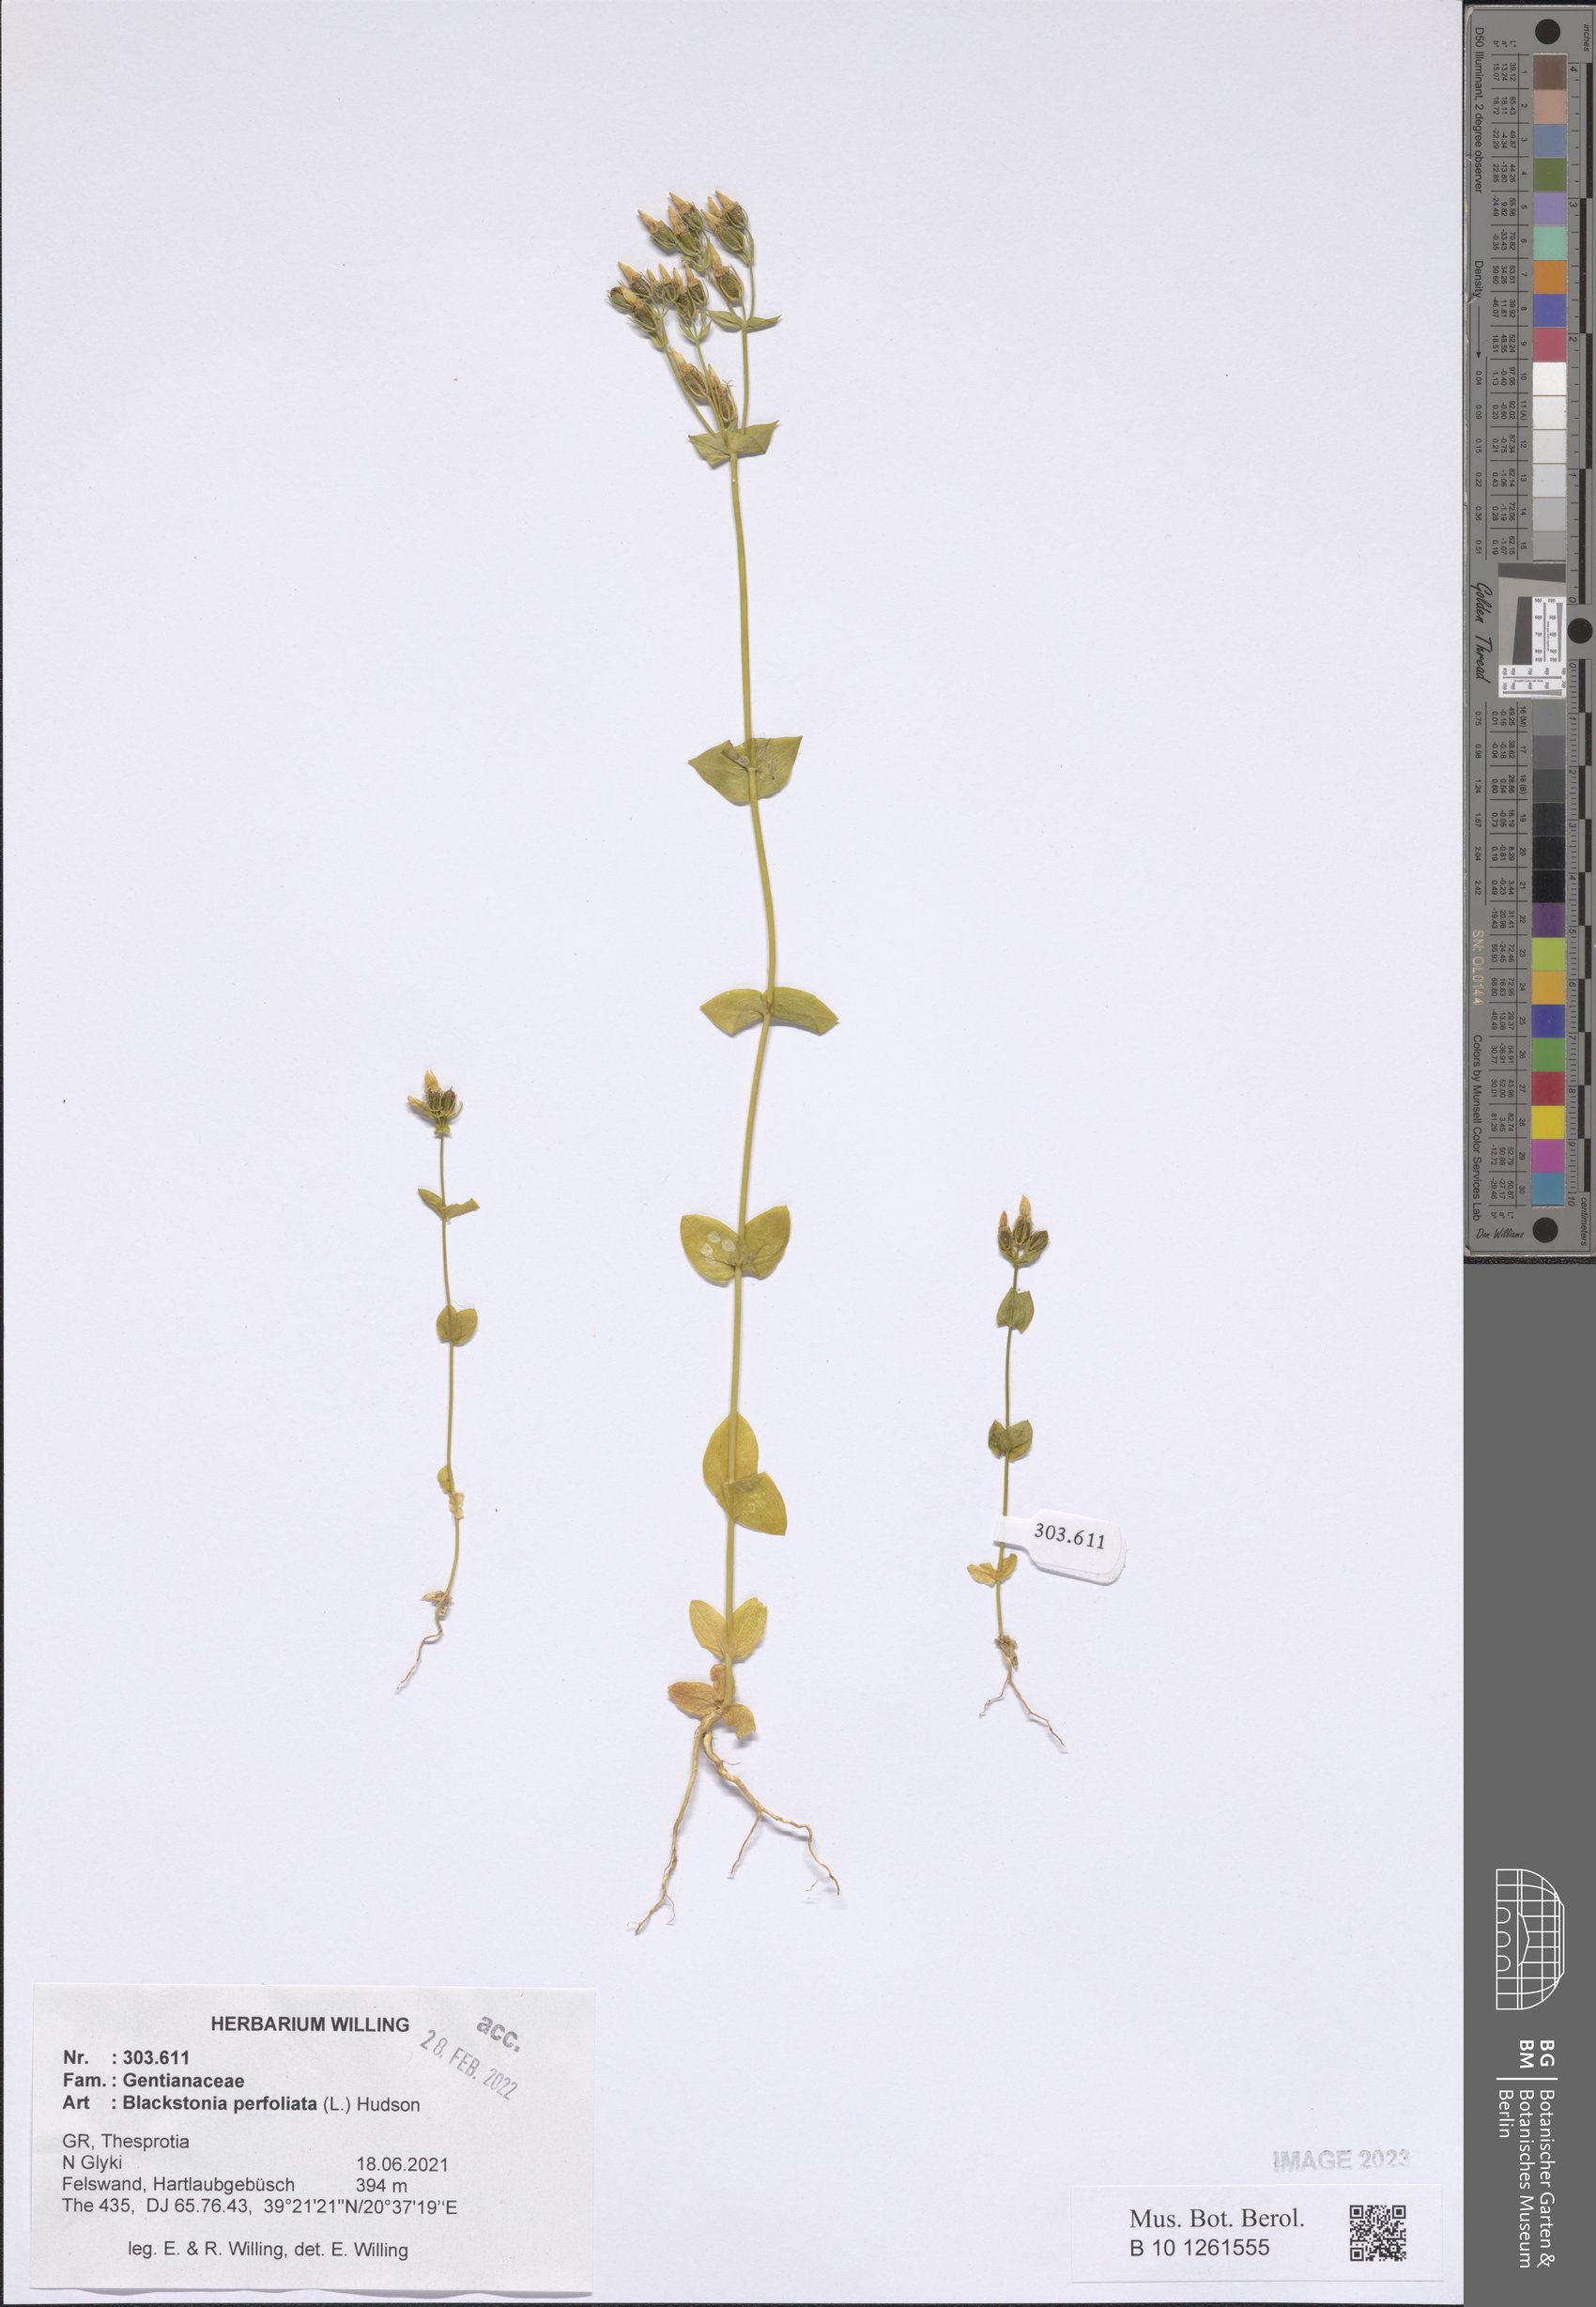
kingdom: Plantae
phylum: Tracheophyta
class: Magnoliopsida
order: Gentianales
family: Gentianaceae
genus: Blackstonia
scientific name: Blackstonia perfoliata
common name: Yellow-wort
